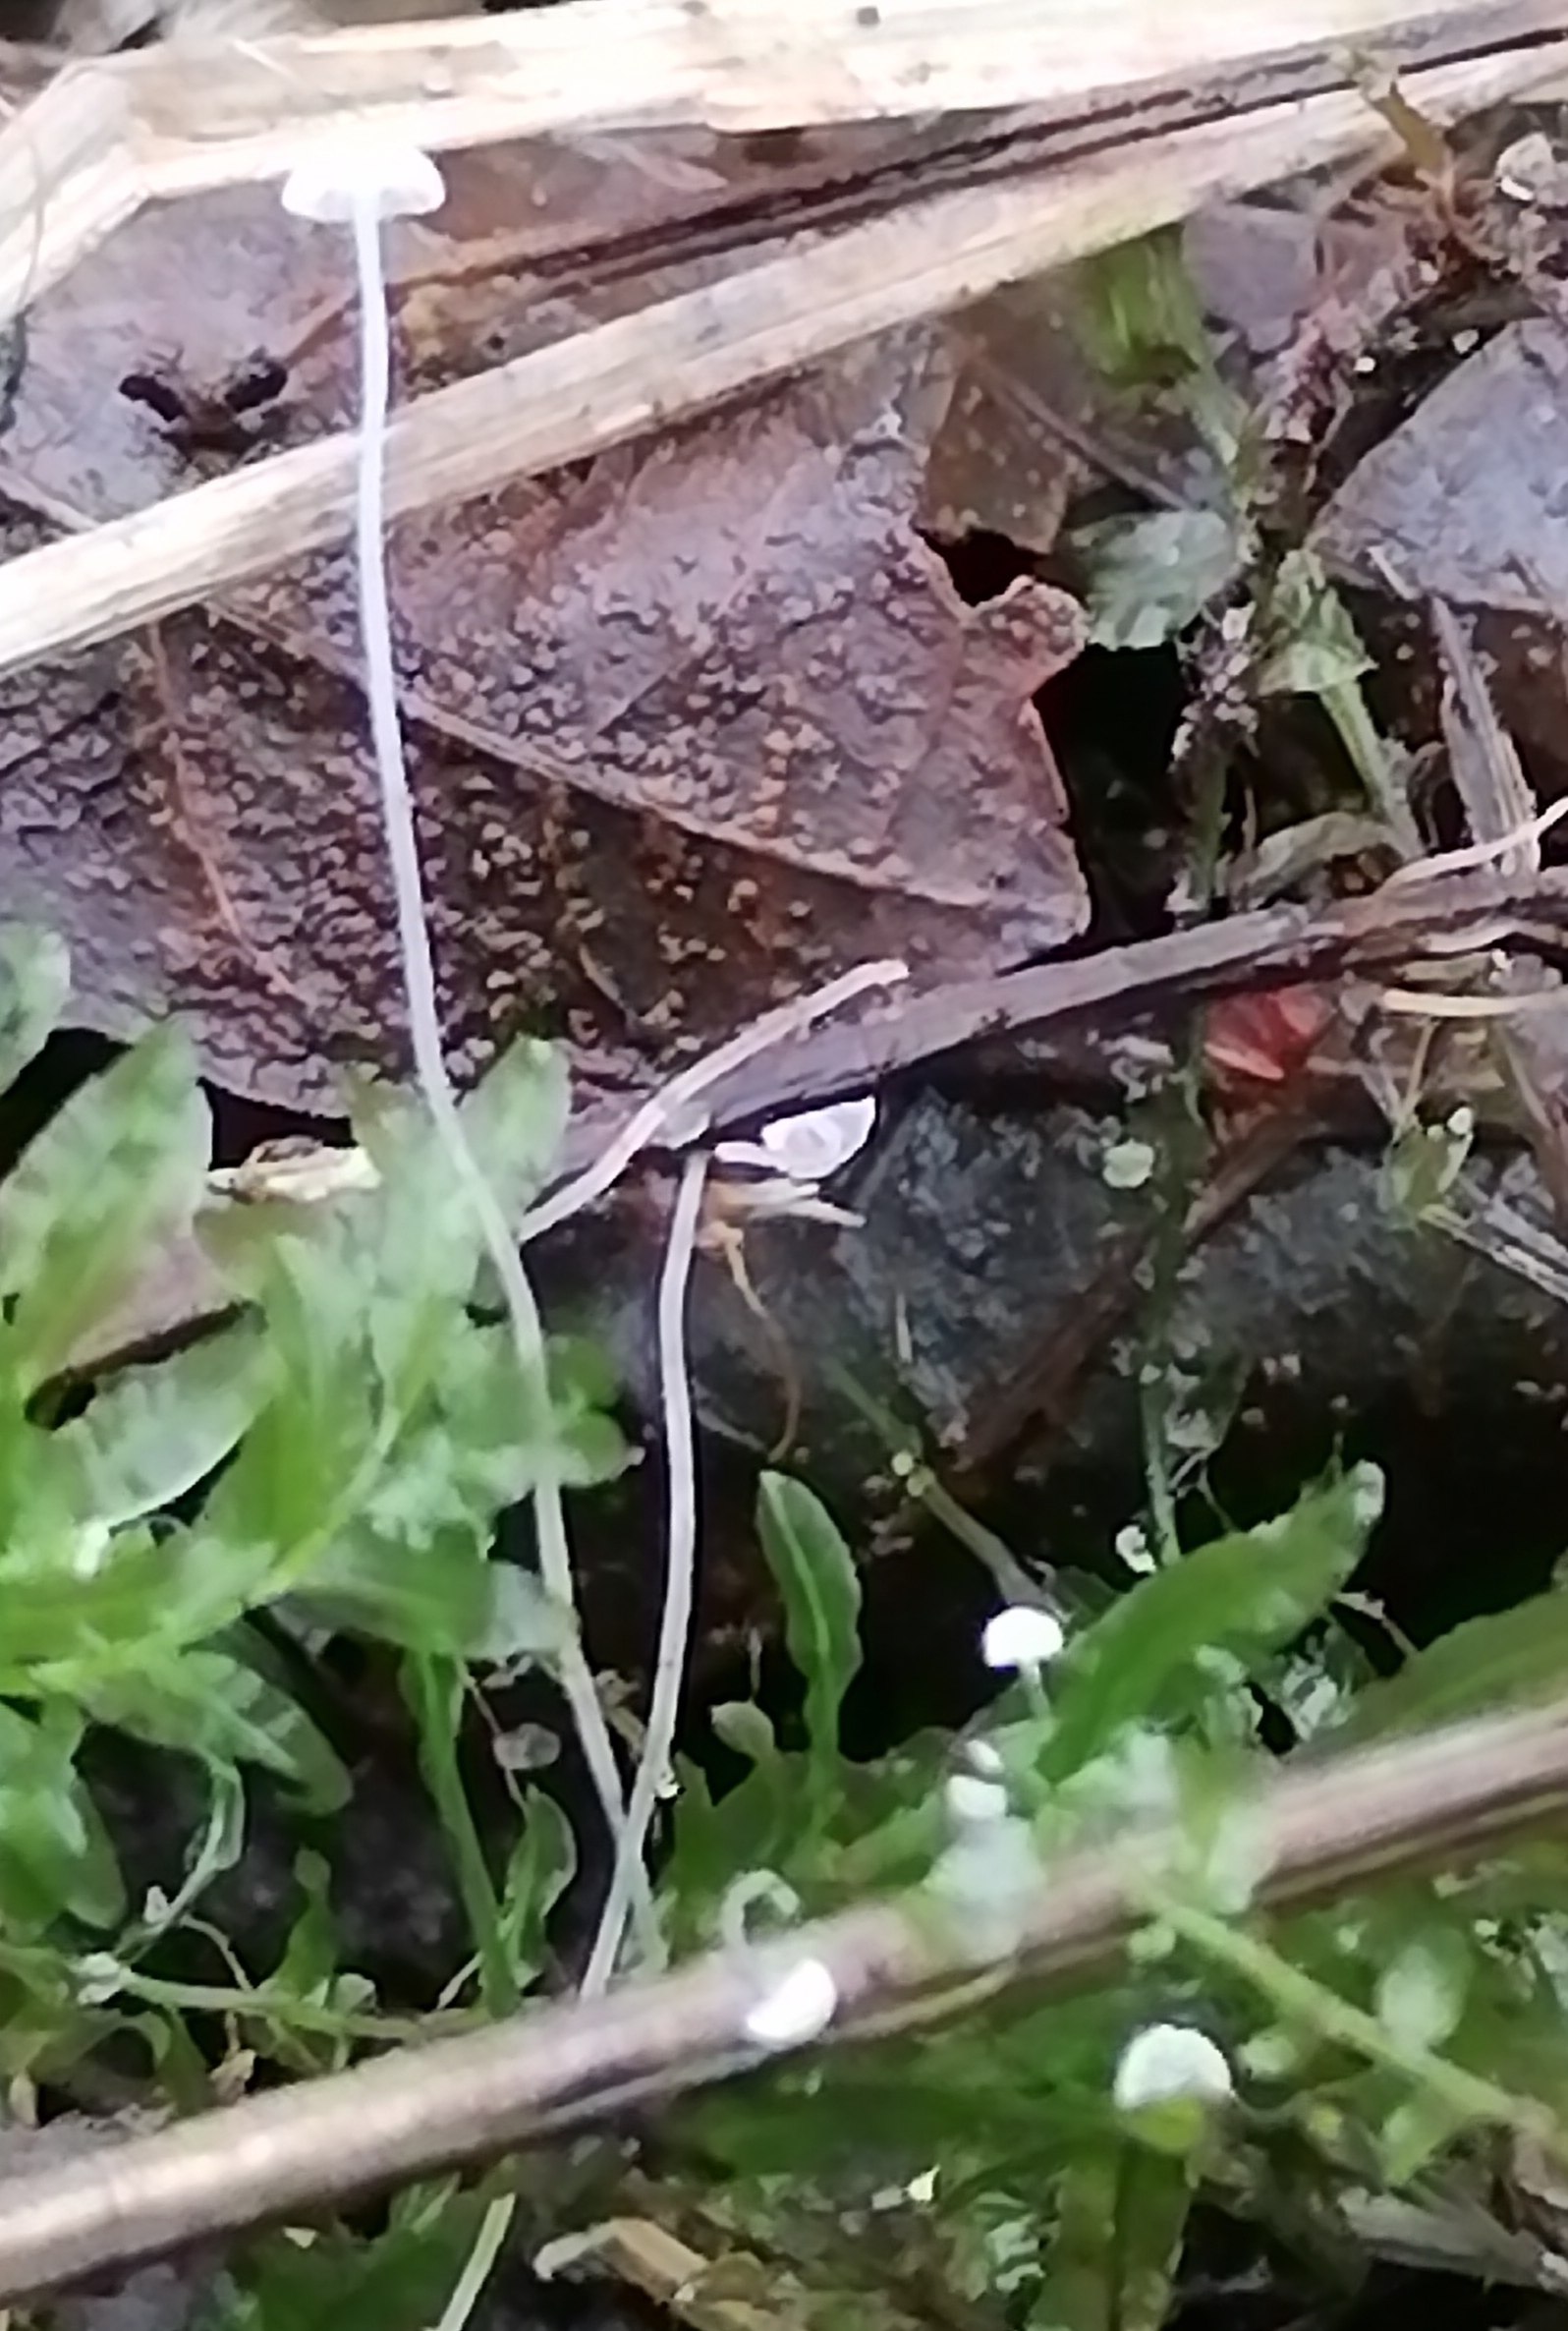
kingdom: Fungi
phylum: Basidiomycota
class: Agaricomycetes
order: Agaricales
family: Mycenaceae
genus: Mycena
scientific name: Mycena
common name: huesvamp
